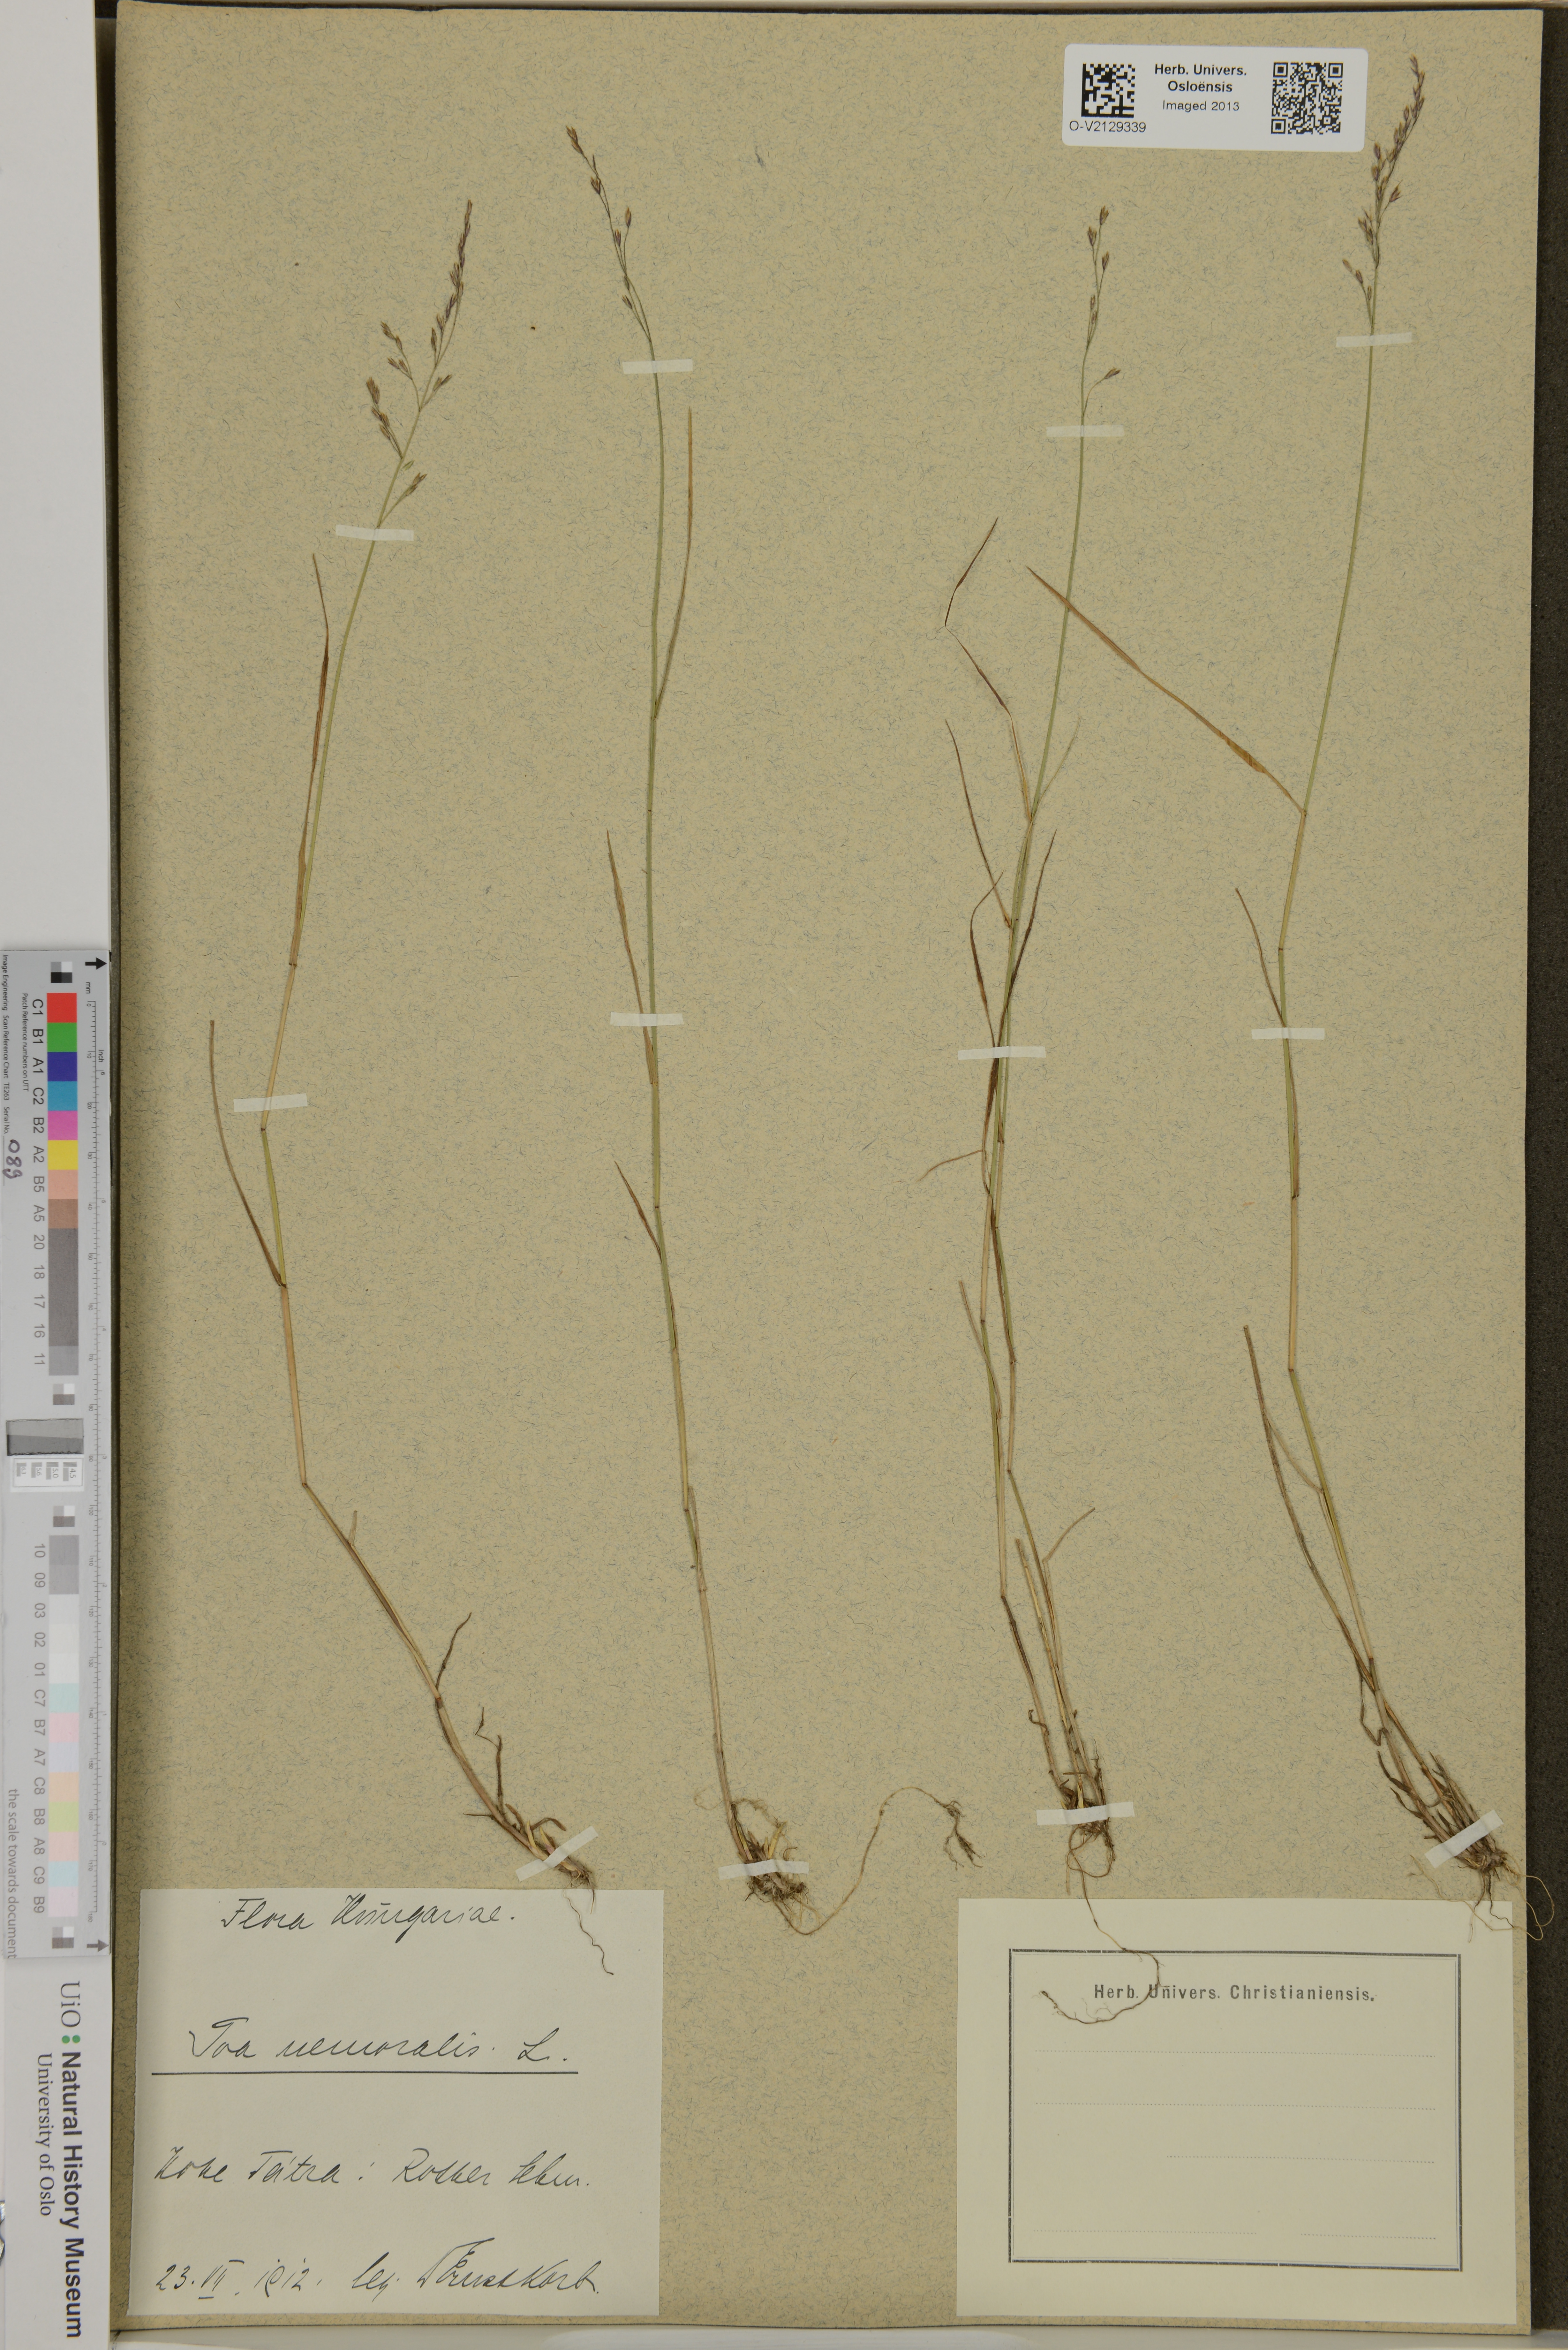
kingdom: Plantae
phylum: Tracheophyta
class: Liliopsida
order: Poales
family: Poaceae
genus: Poa
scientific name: Poa nemoralis
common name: Wood bluegrass
